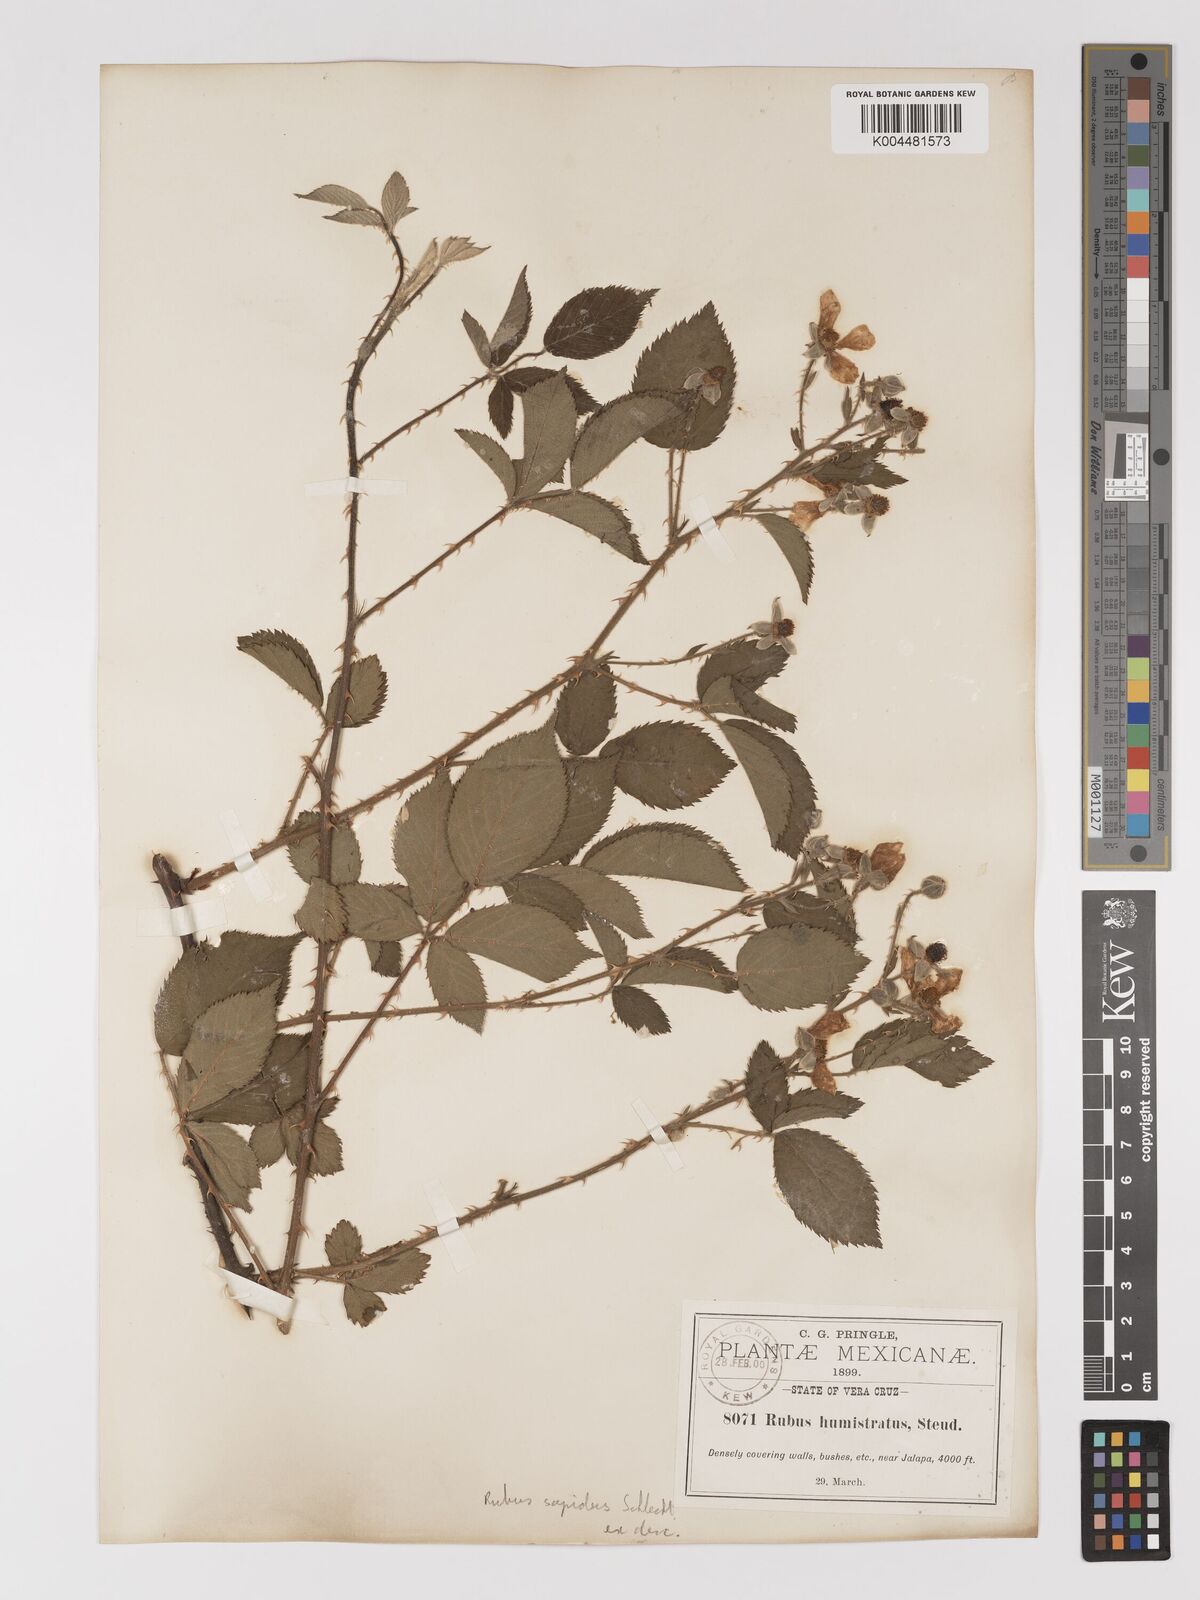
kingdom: Plantae
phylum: Tracheophyta
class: Magnoliopsida
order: Rosales
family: Rosaceae
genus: Rubus
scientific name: Rubus sapidus
